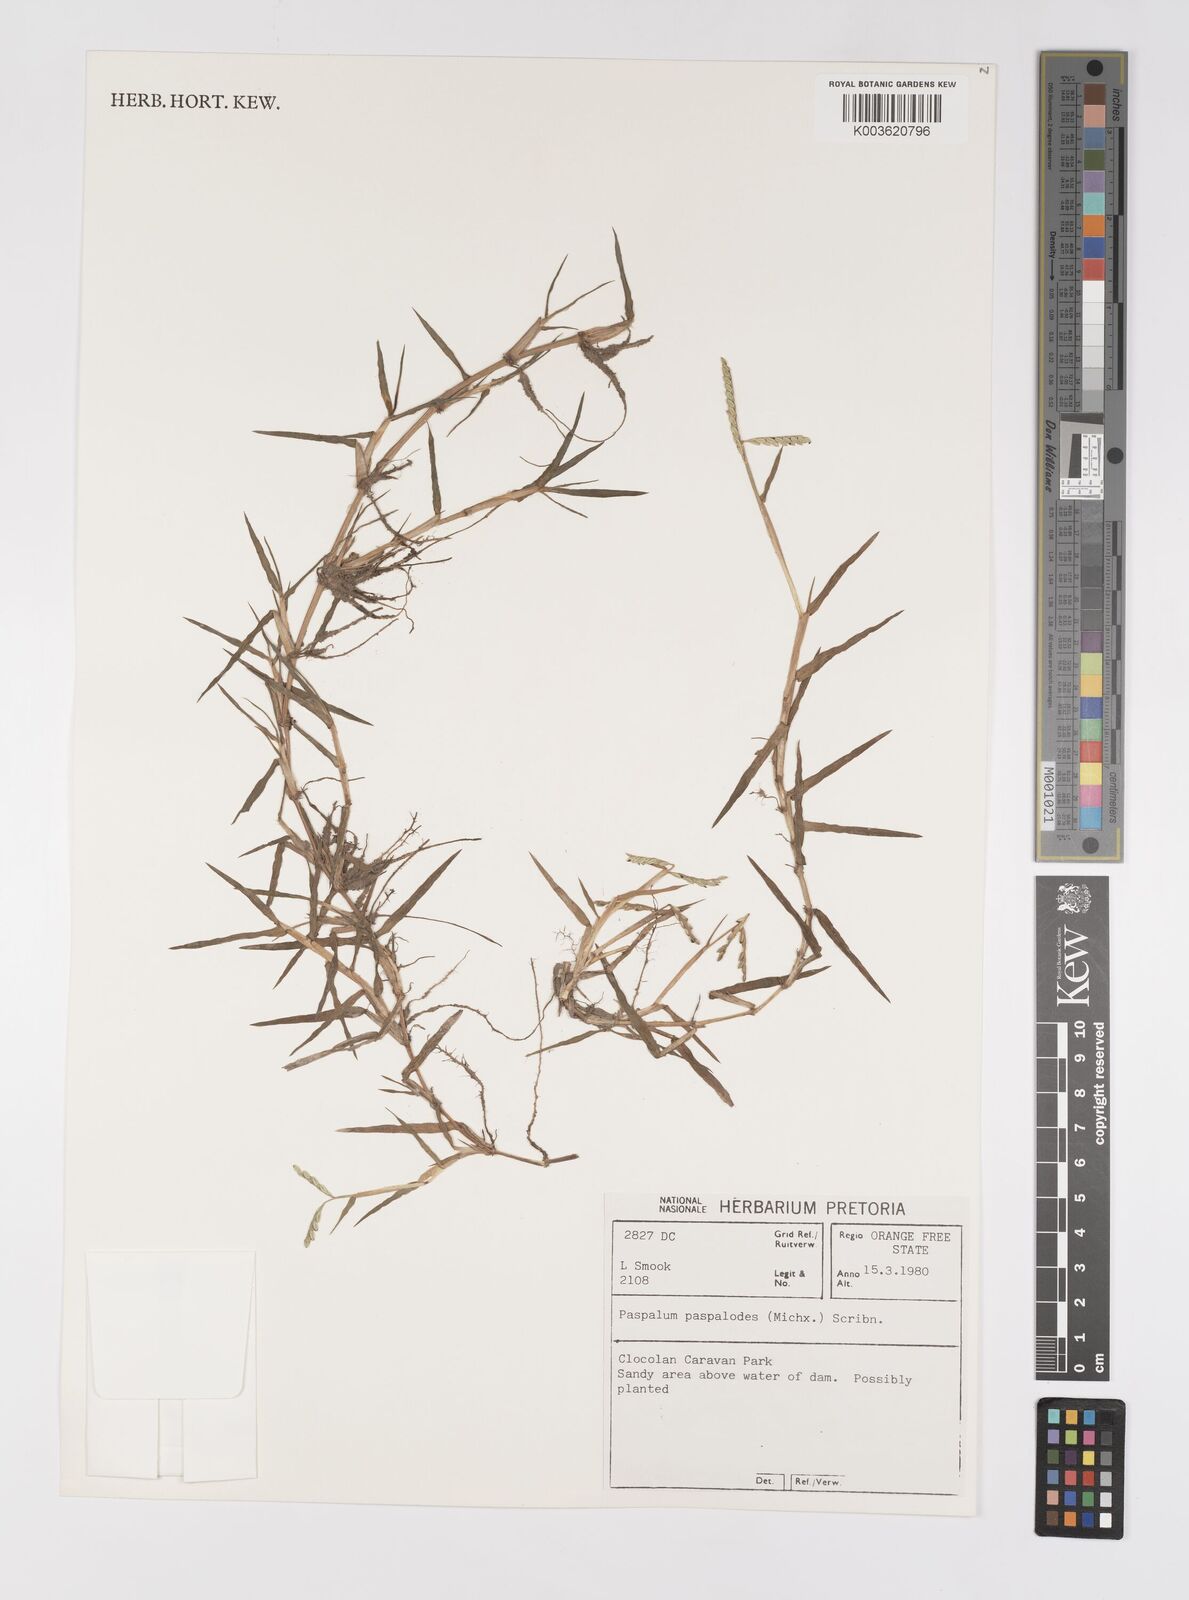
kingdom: Plantae
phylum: Tracheophyta
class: Liliopsida
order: Poales
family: Poaceae
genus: Paspalum
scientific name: Paspalum distichum
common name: Knotgrass
